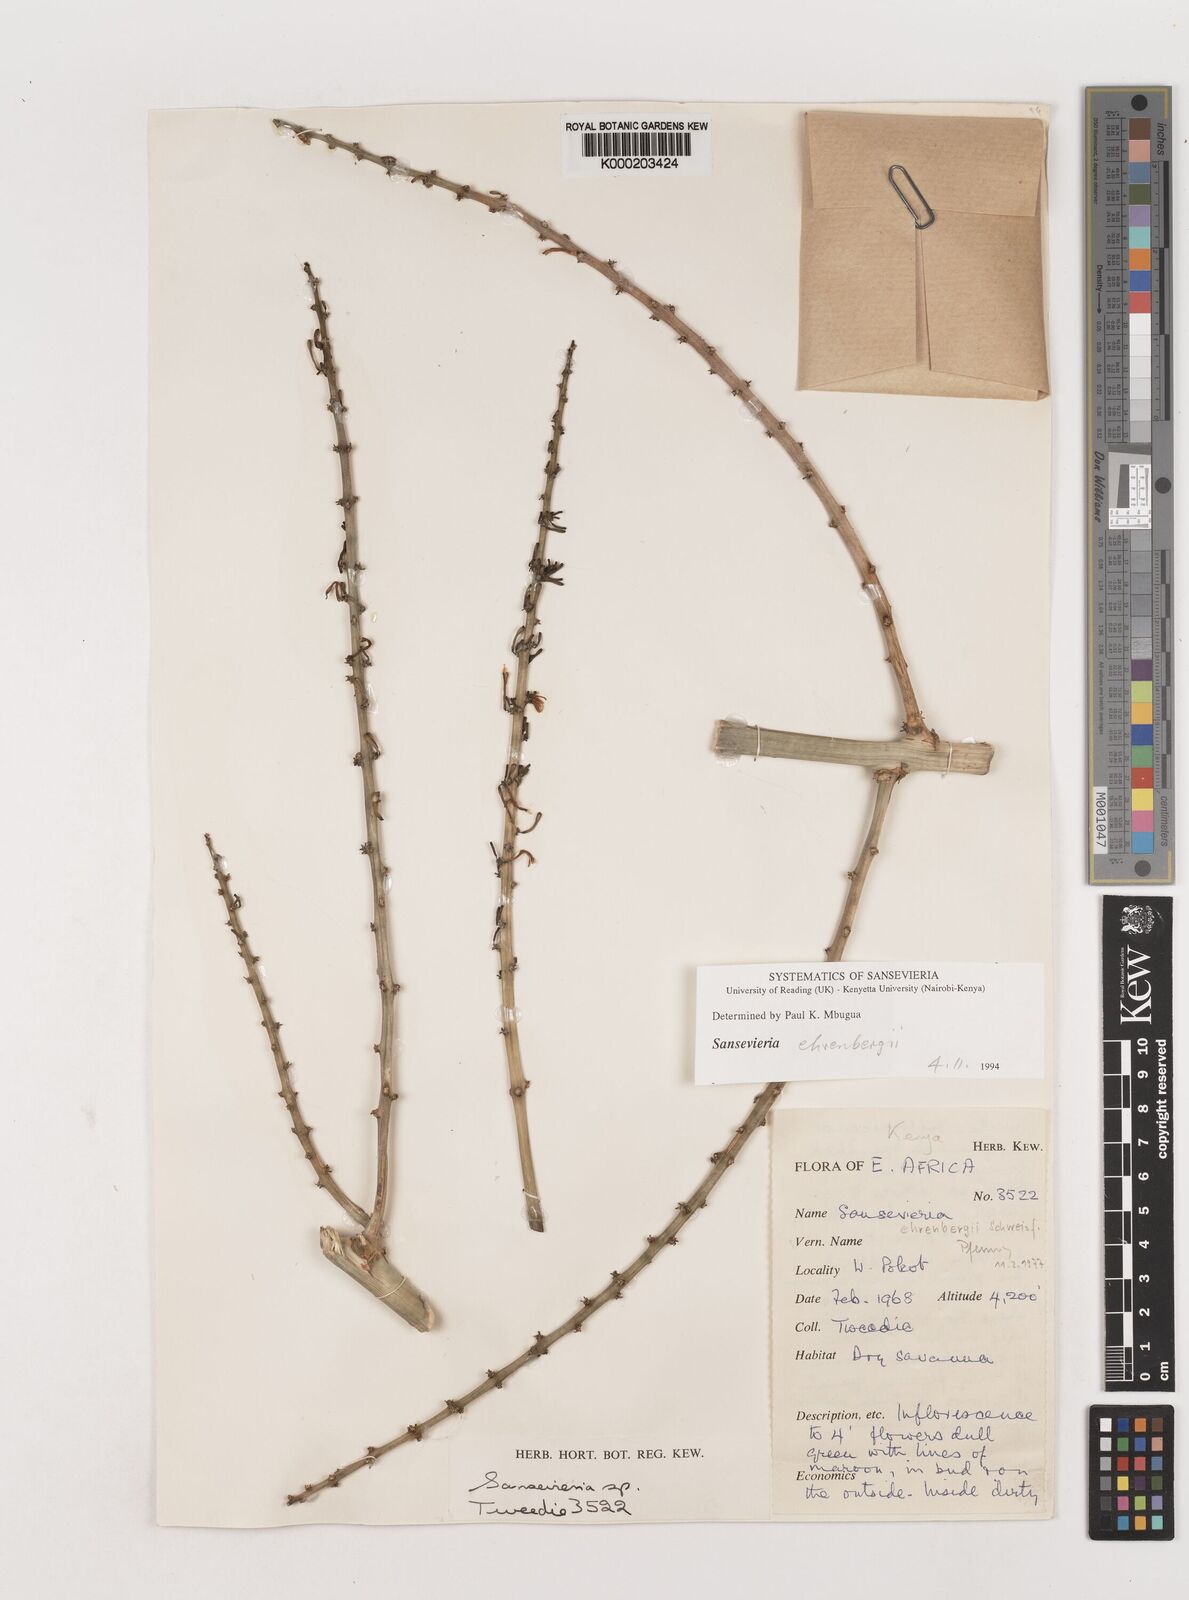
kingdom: Plantae
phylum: Tracheophyta
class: Liliopsida
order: Asparagales
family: Asparagaceae
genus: Dracaena
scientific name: Dracaena hanningtonii
